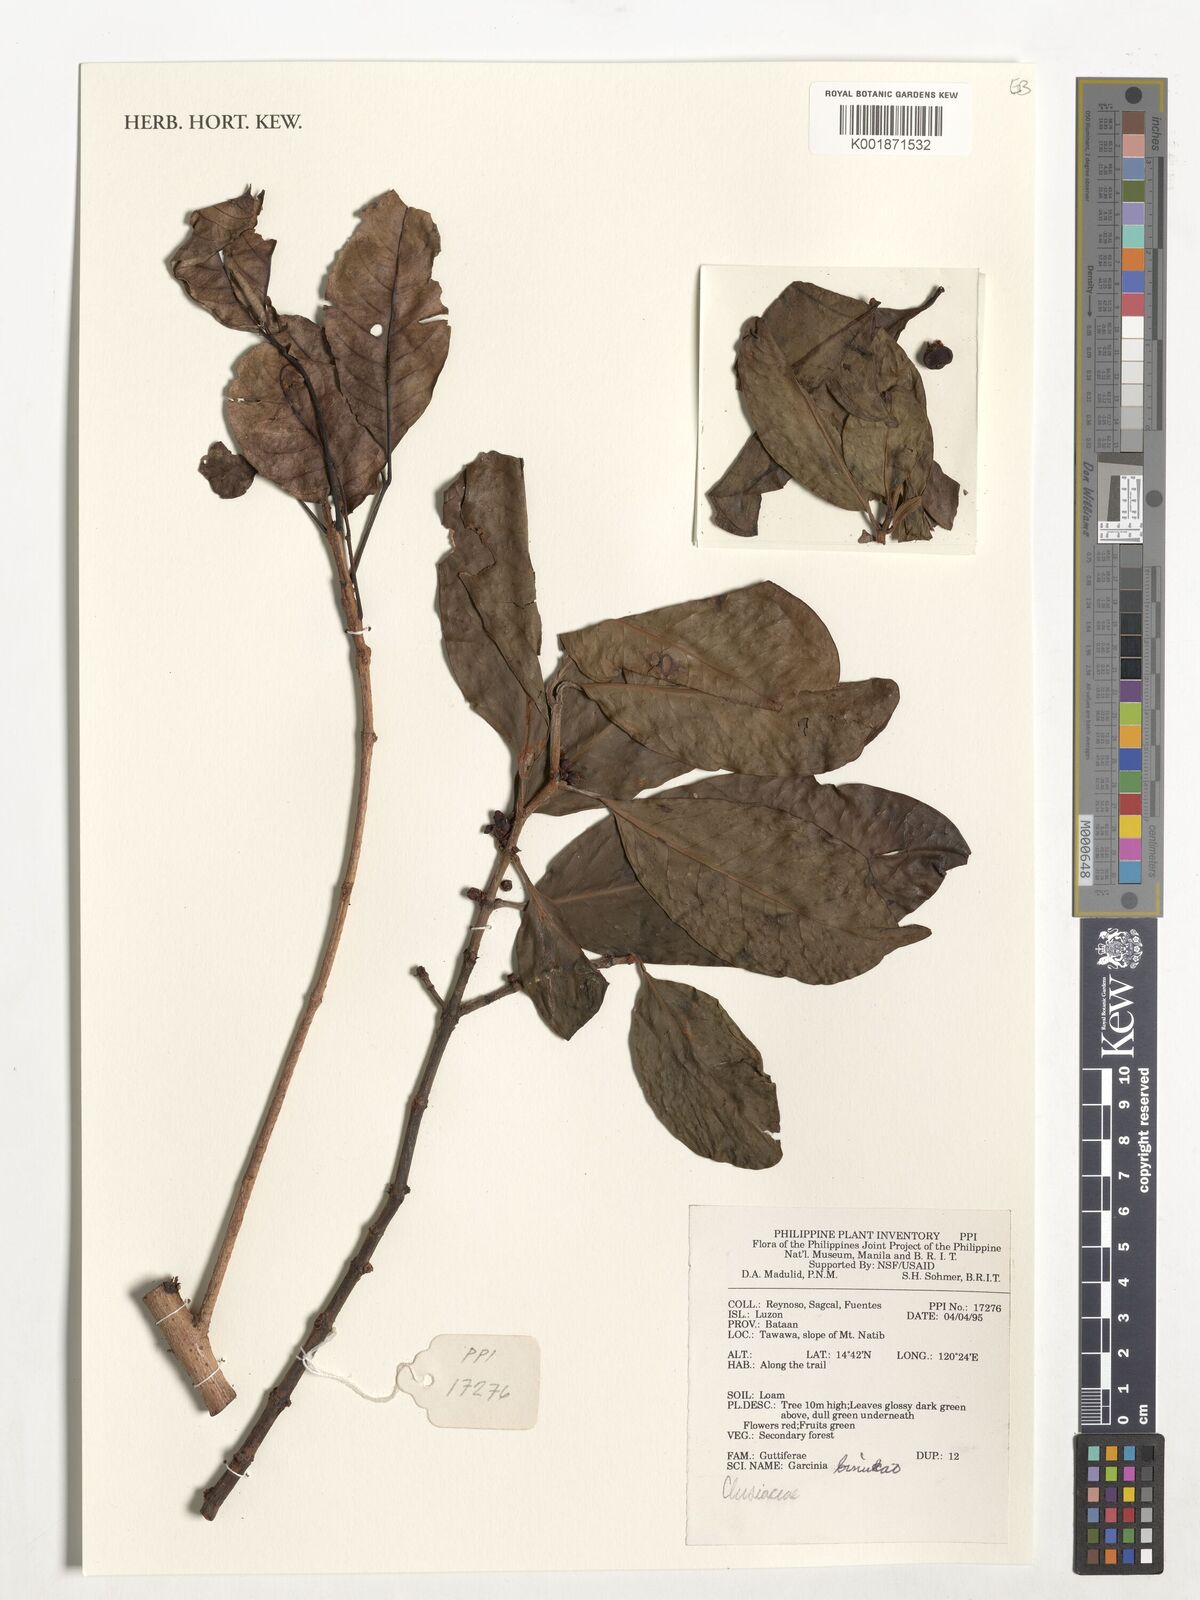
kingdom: Plantae
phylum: Tracheophyta
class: Magnoliopsida
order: Malpighiales
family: Clusiaceae
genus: Garcinia
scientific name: Garcinia binucao
